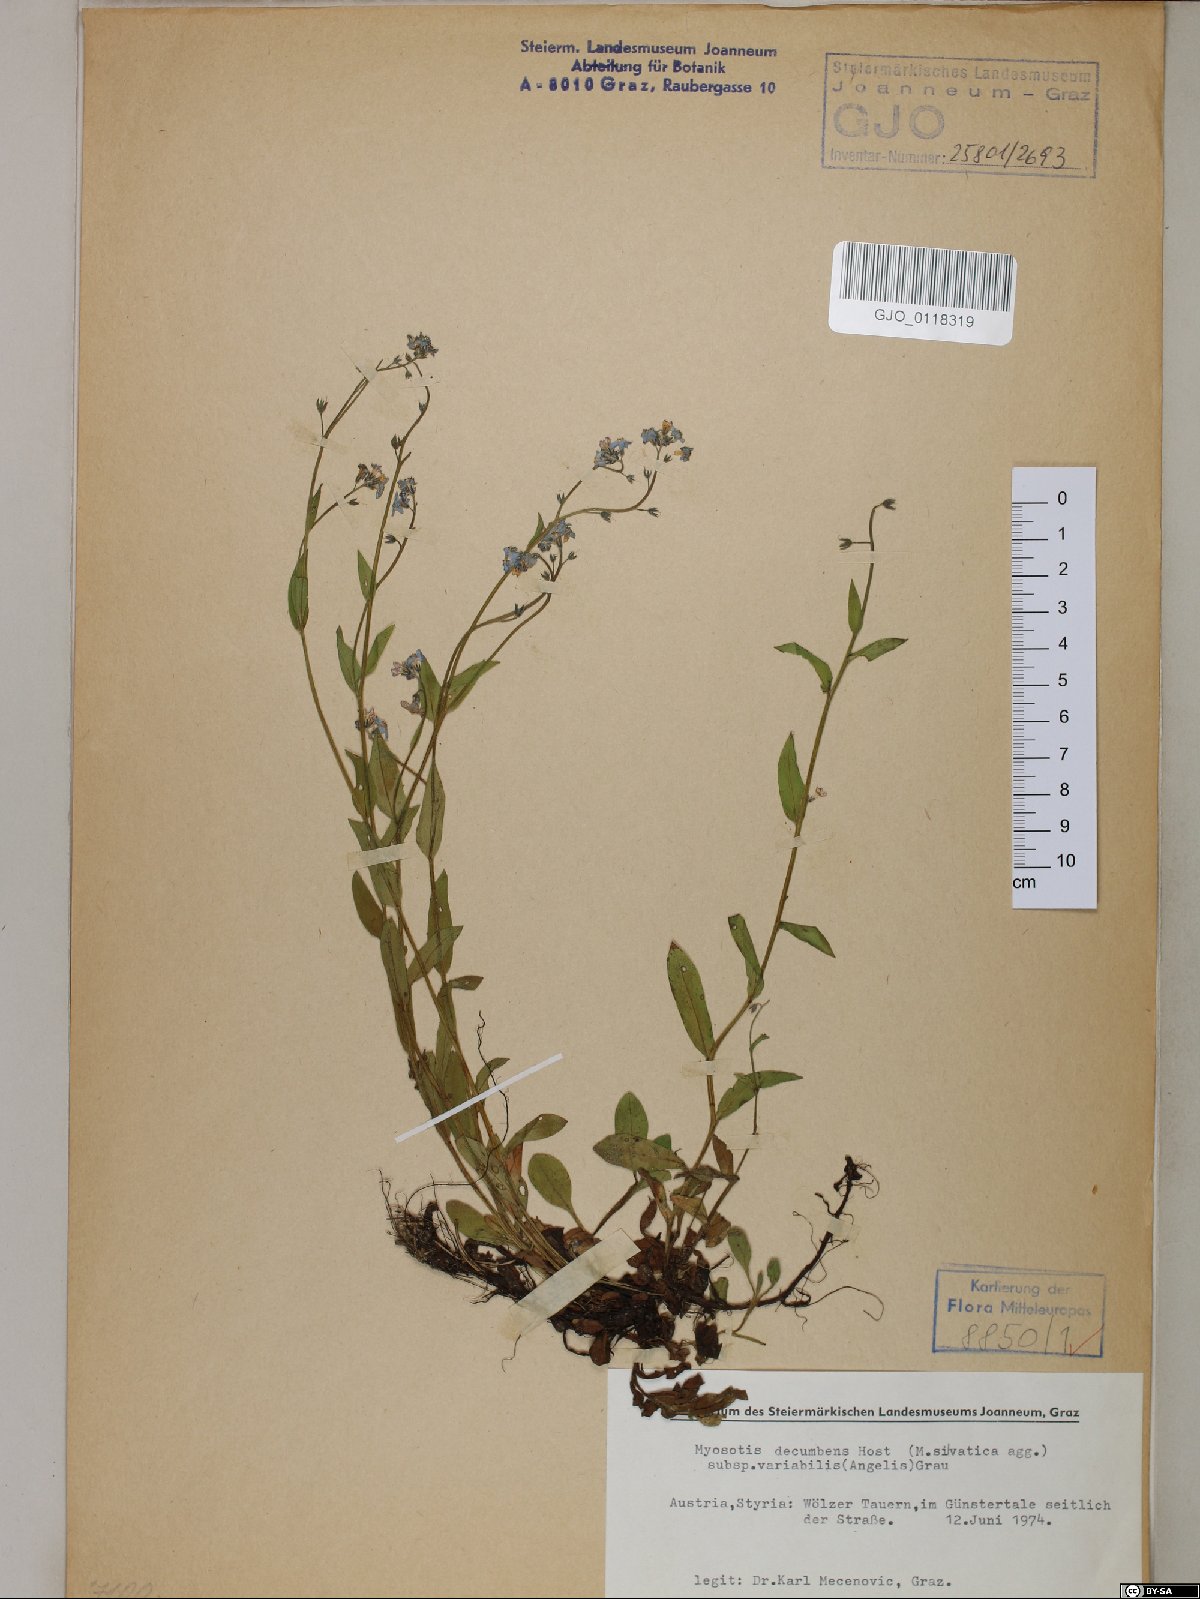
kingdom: Plantae
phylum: Tracheophyta
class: Magnoliopsida
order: Boraginales
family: Boraginaceae
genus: Myosotis
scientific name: Myosotis decumbens
